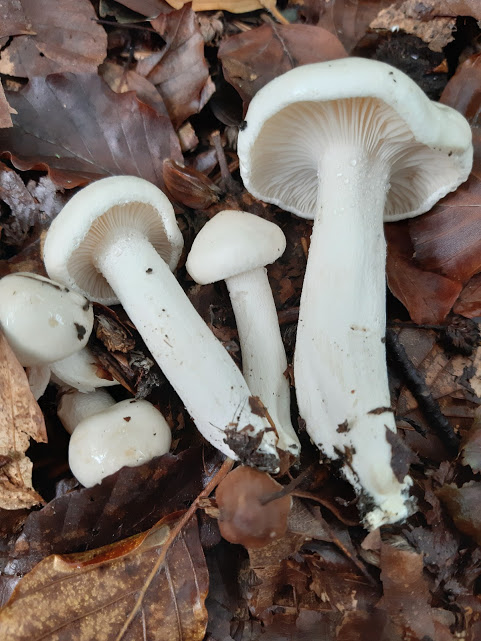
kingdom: Fungi
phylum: Basidiomycota
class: Agaricomycetes
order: Agaricales
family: Hygrophoraceae
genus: Hygrophorus
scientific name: Hygrophorus eburneus
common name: elfenbens-sneglehat
